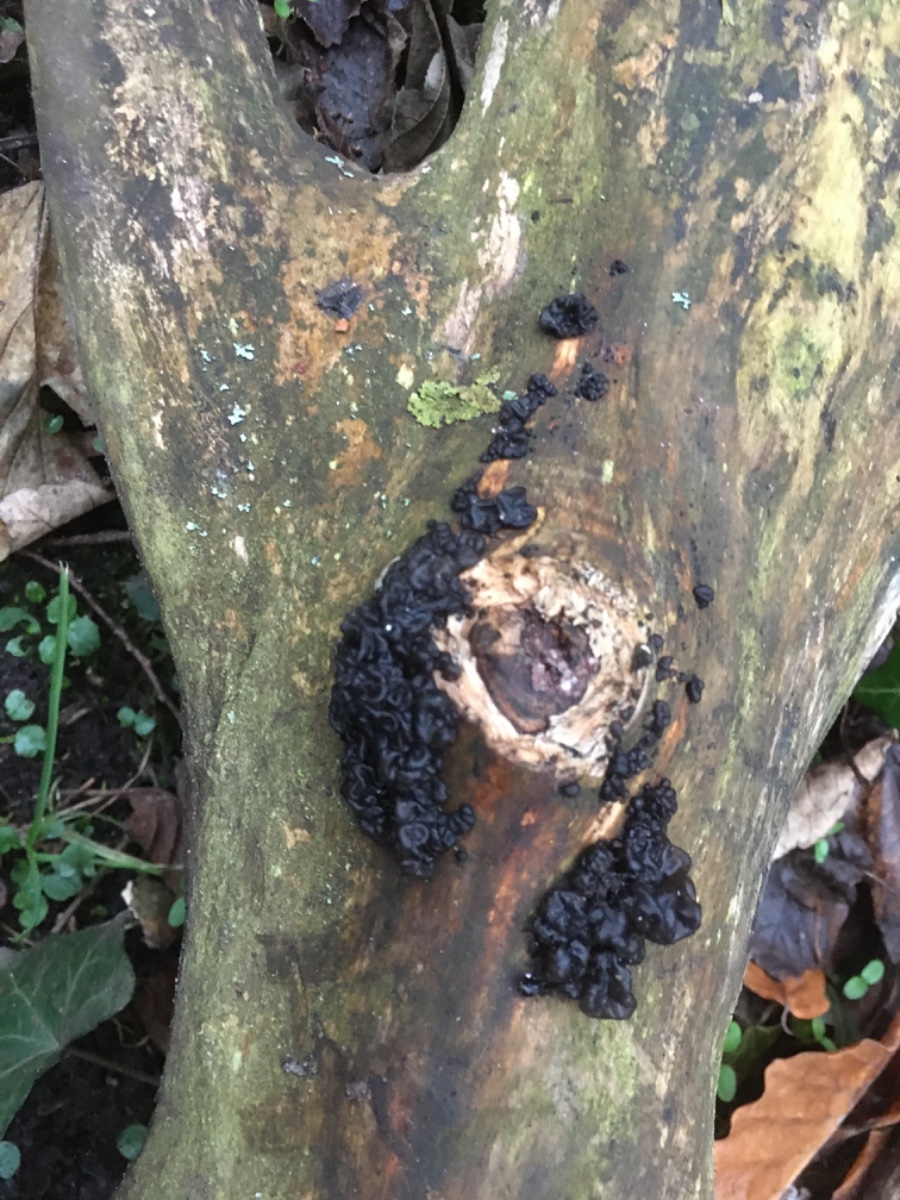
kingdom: Fungi
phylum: Basidiomycota
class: Agaricomycetes
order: Auriculariales
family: Auriculariaceae
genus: Exidia
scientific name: Exidia nigricans
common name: almindelig bævretop
